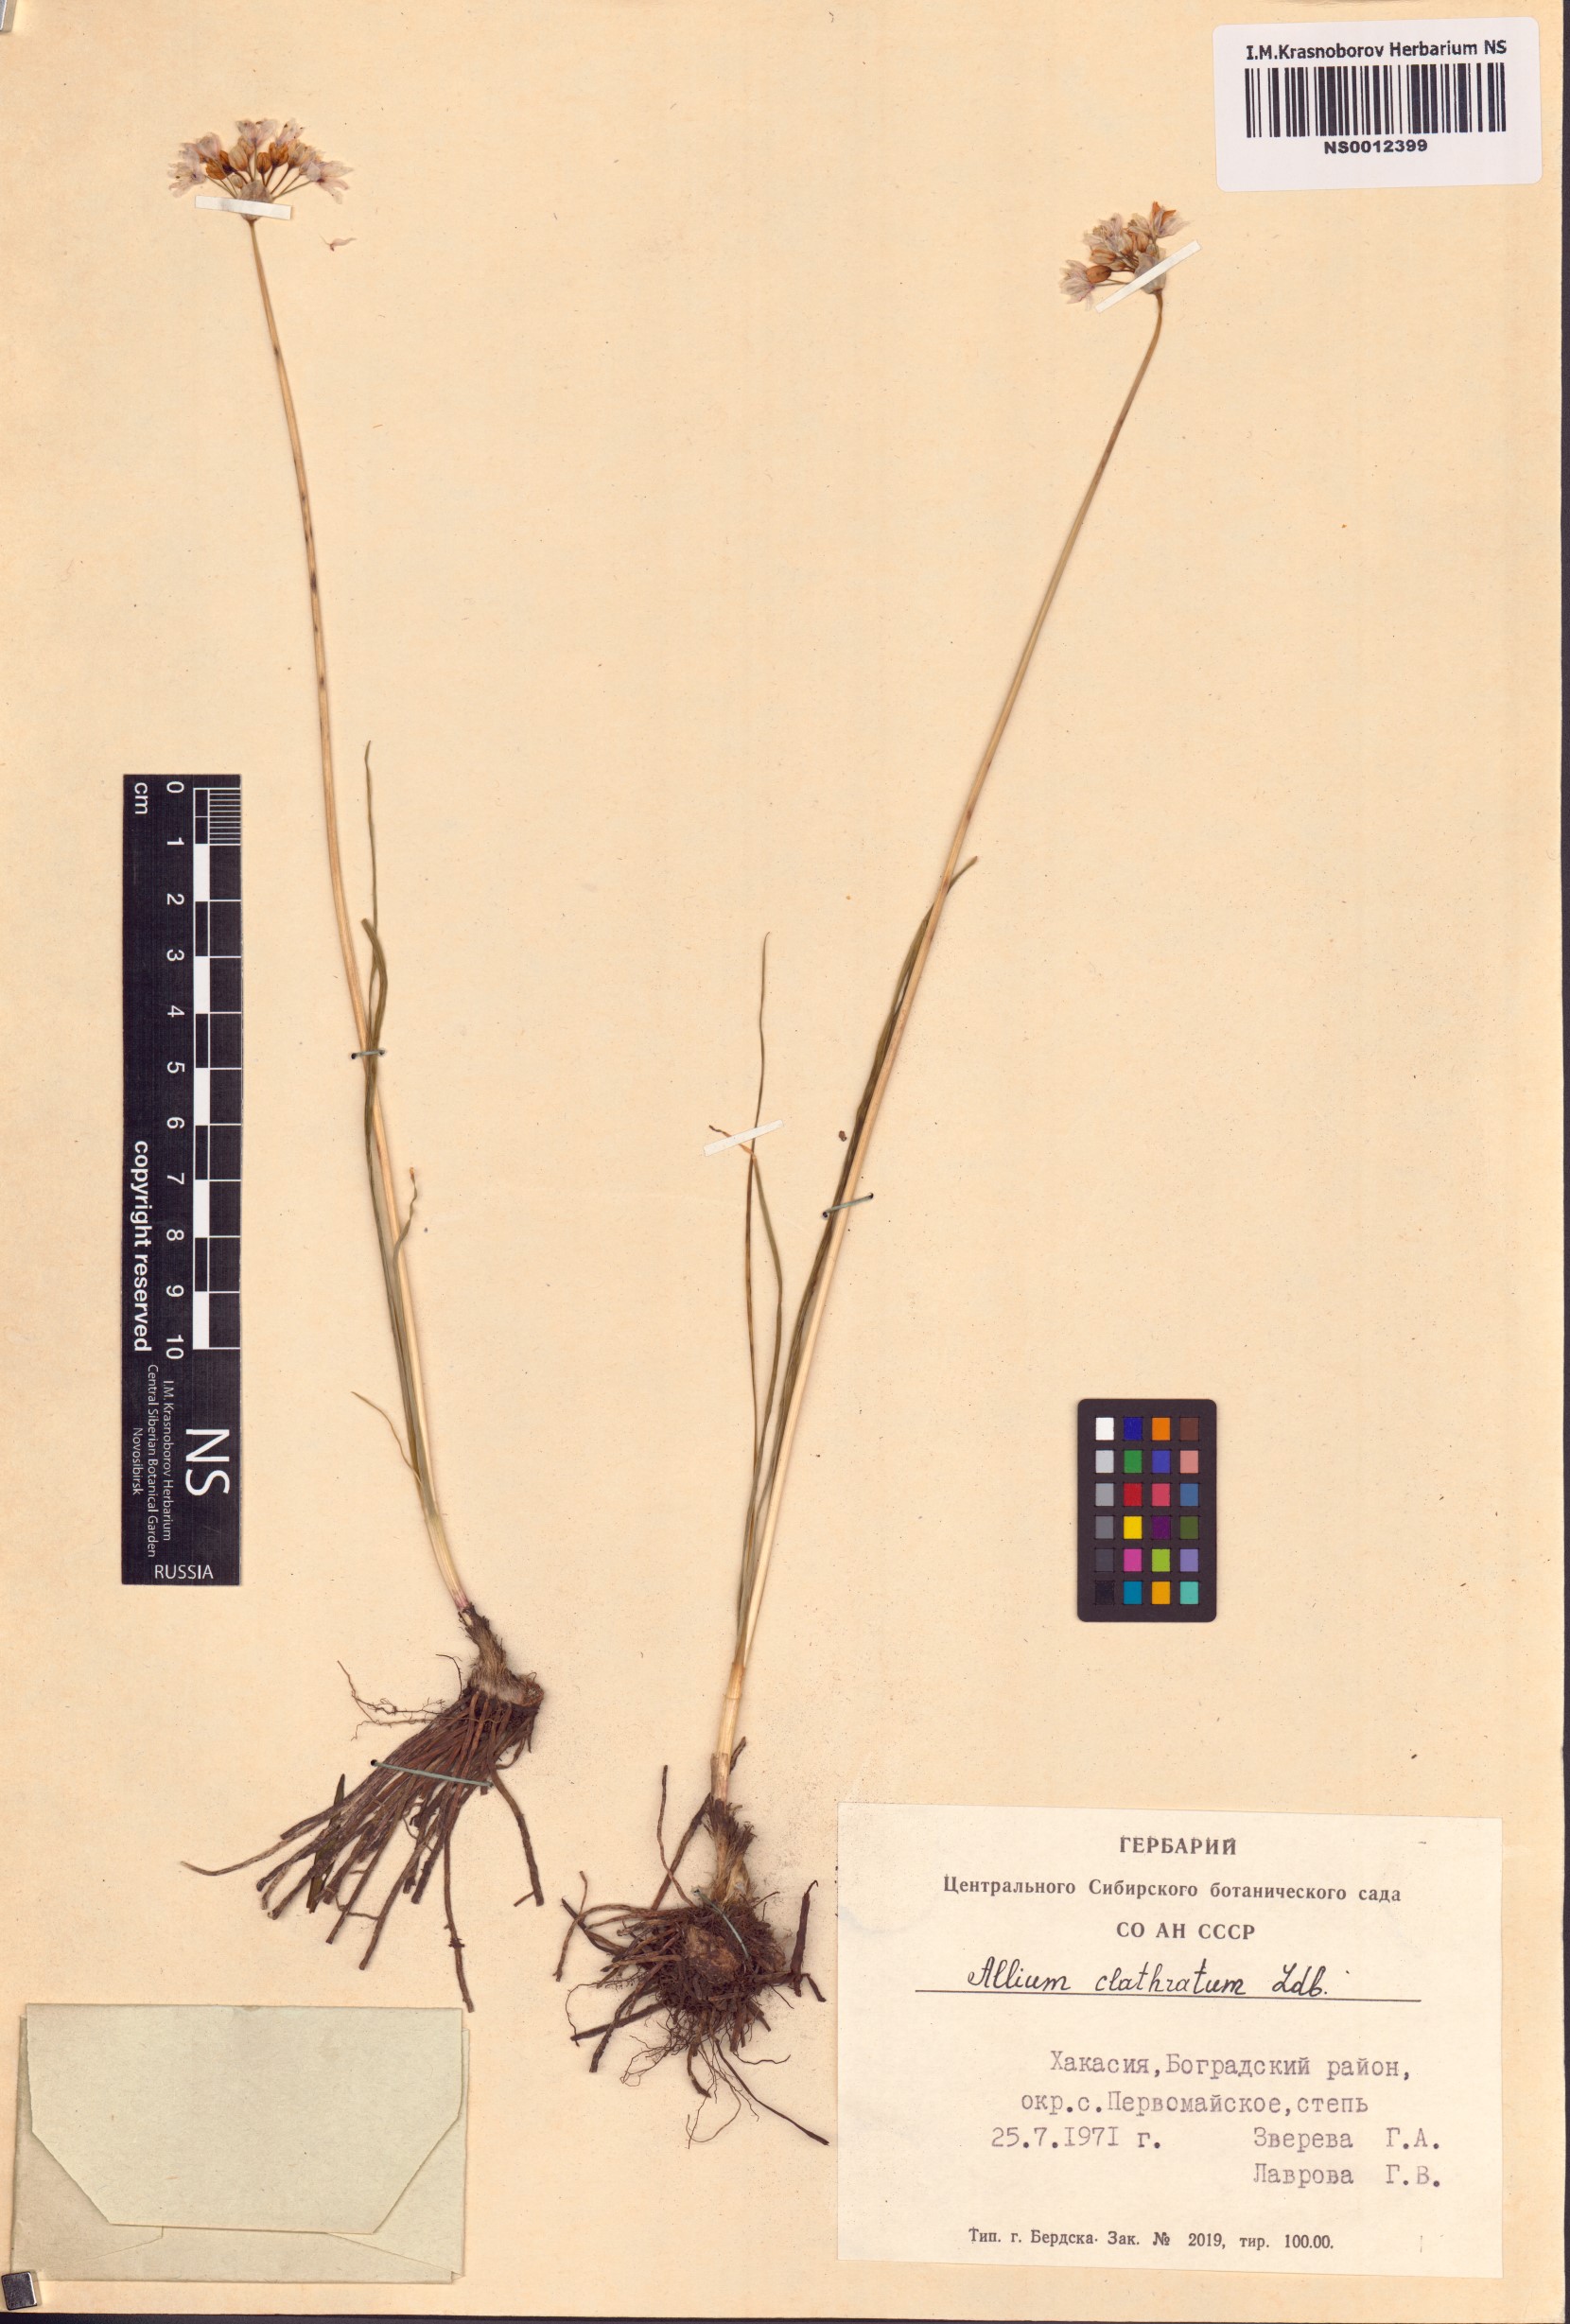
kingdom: Plantae
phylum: Tracheophyta
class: Liliopsida
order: Asparagales
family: Amaryllidaceae
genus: Allium
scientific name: Allium clathratum
